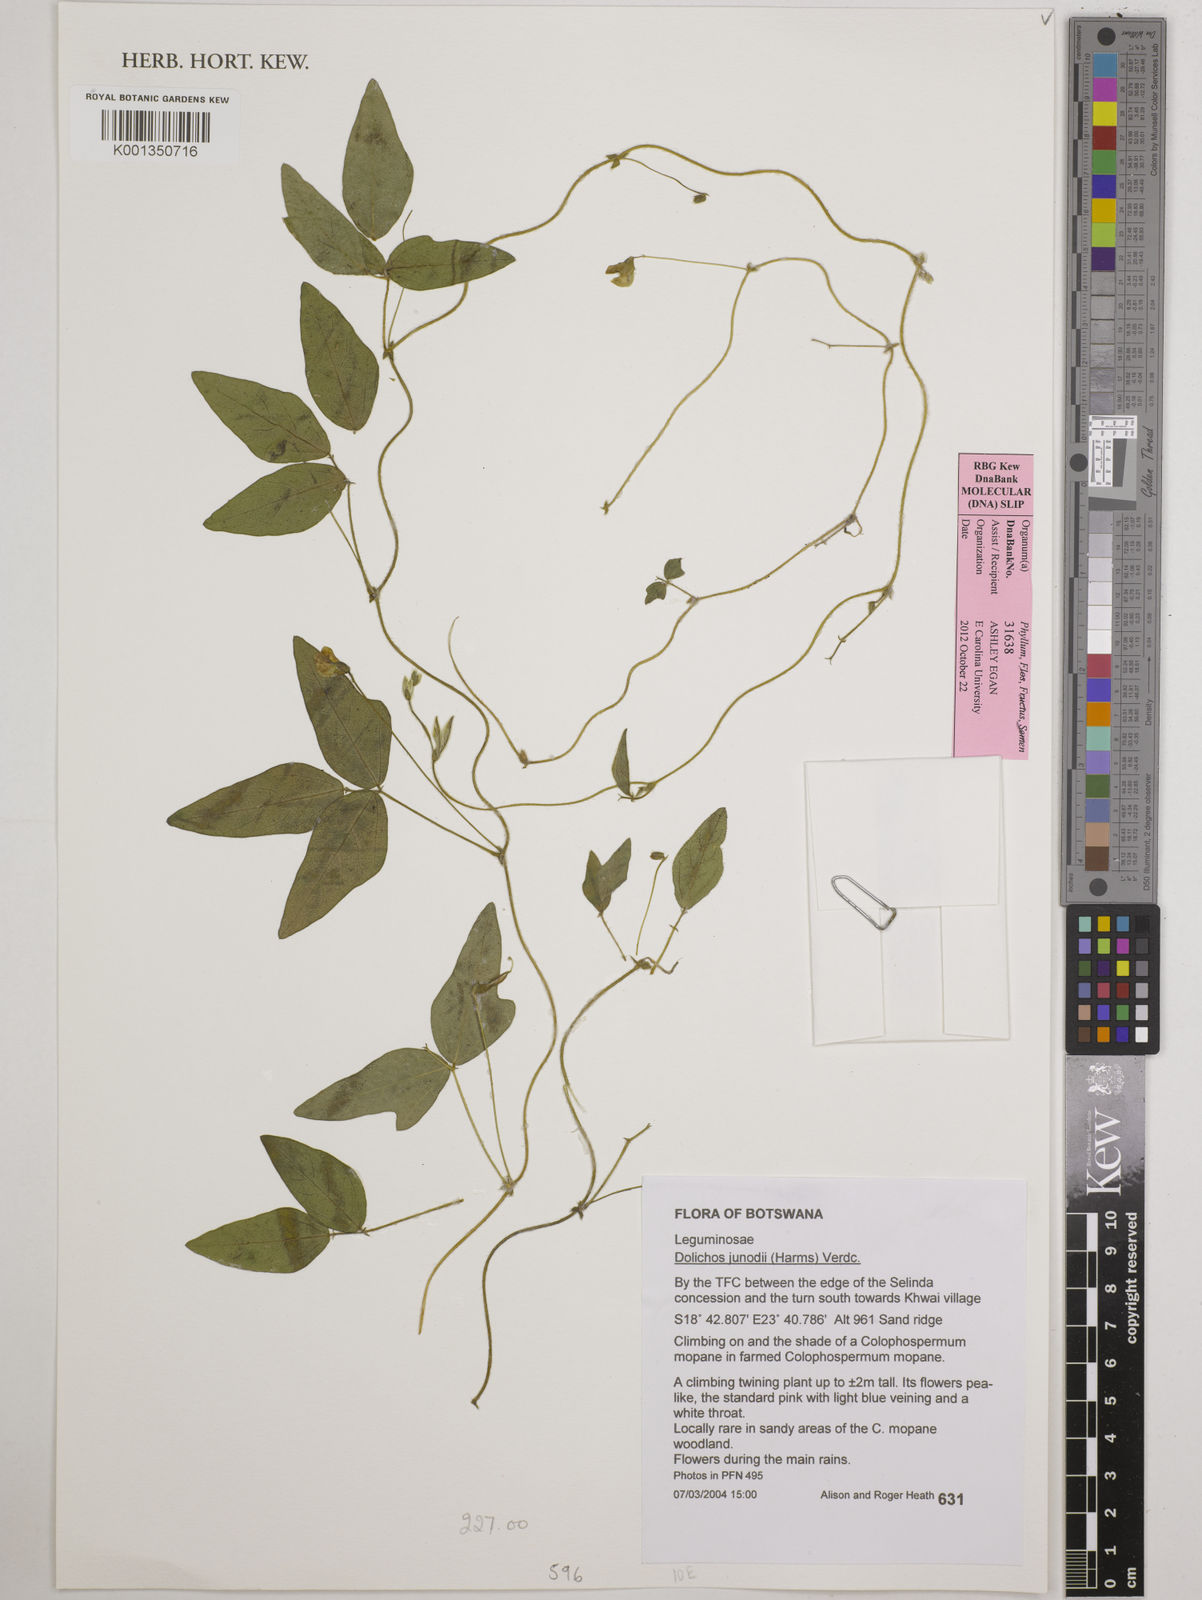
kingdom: Plantae
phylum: Tracheophyta
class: Magnoliopsida
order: Fabales
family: Fabaceae
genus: Dolichos
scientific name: Dolichos junodii
